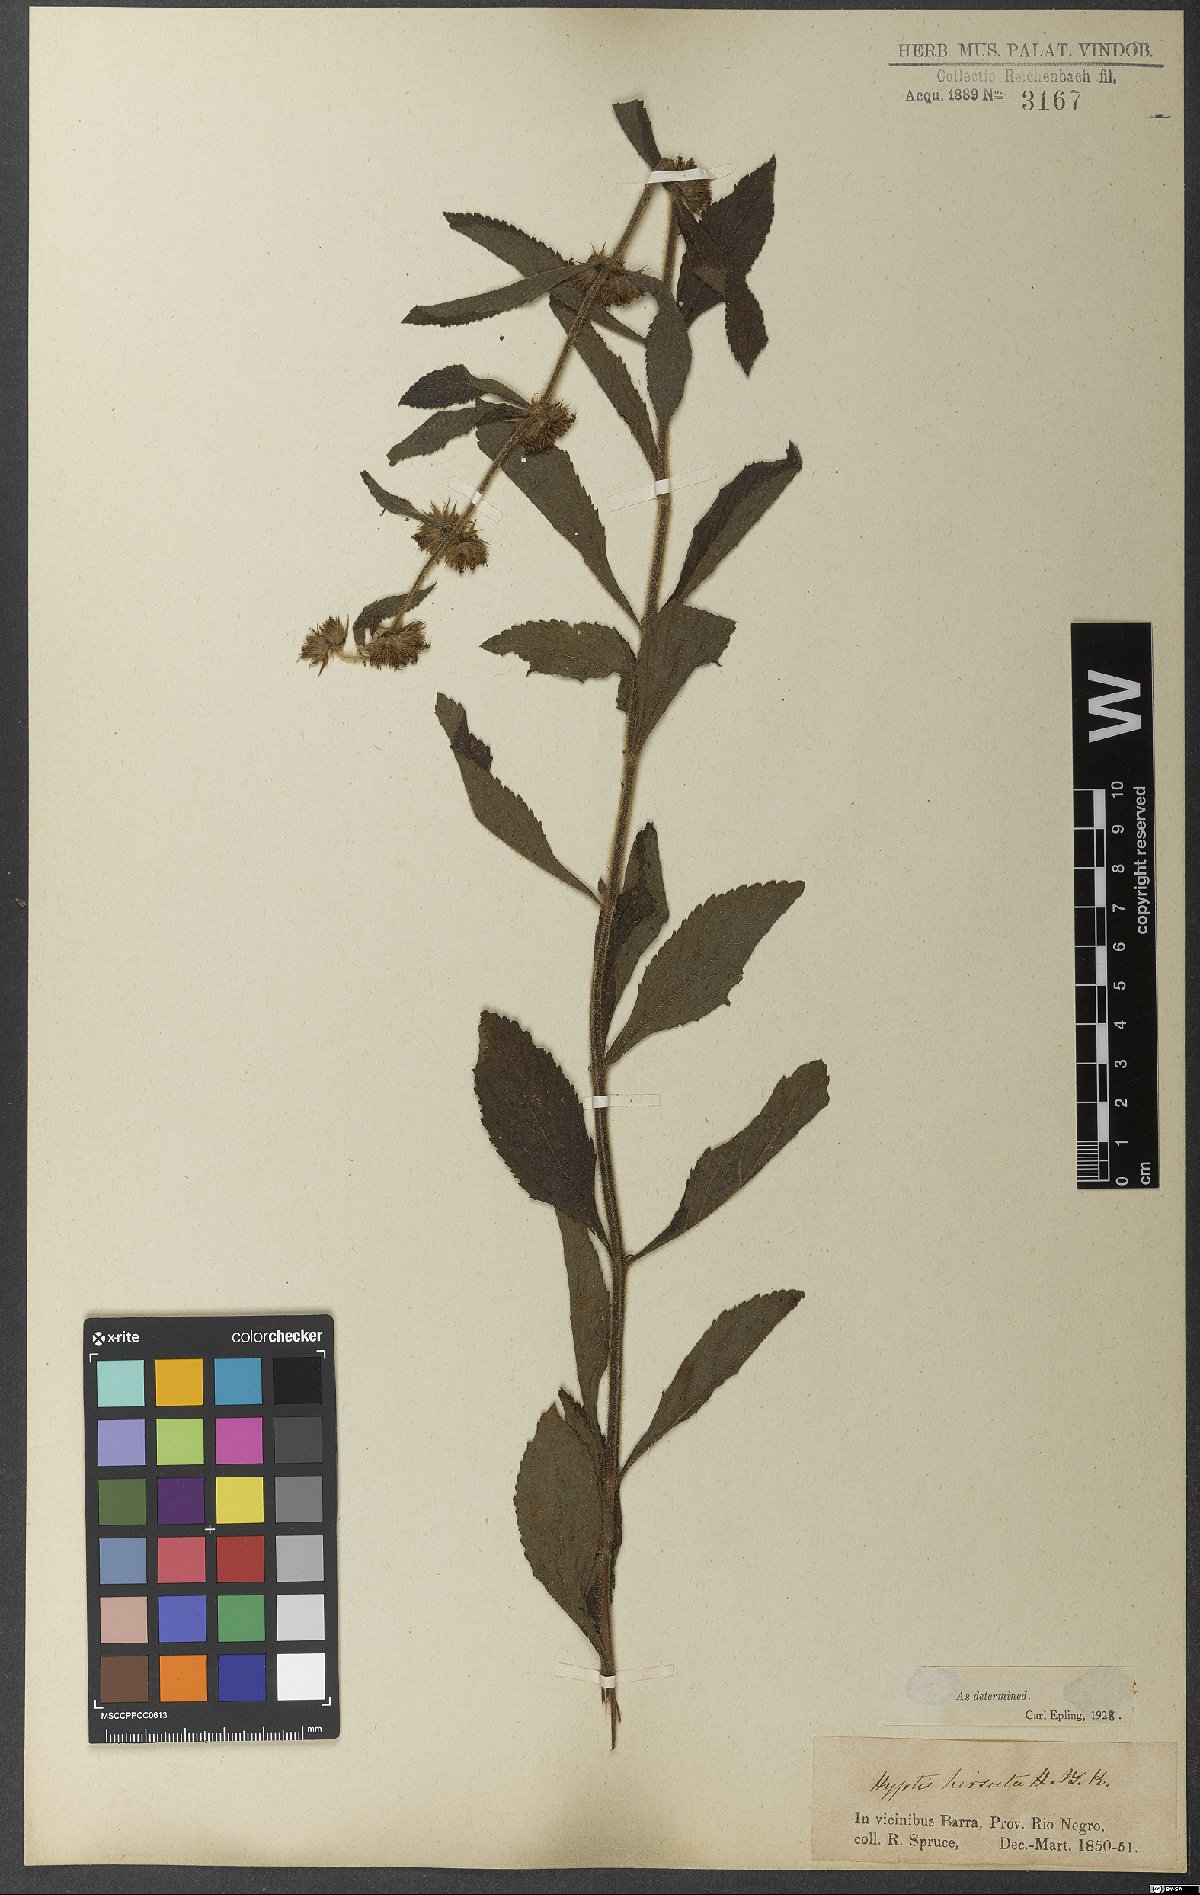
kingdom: Plantae
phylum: Tracheophyta
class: Magnoliopsida
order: Lamiales
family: Lamiaceae
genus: Hyptis
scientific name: Hyptis hirsuta
